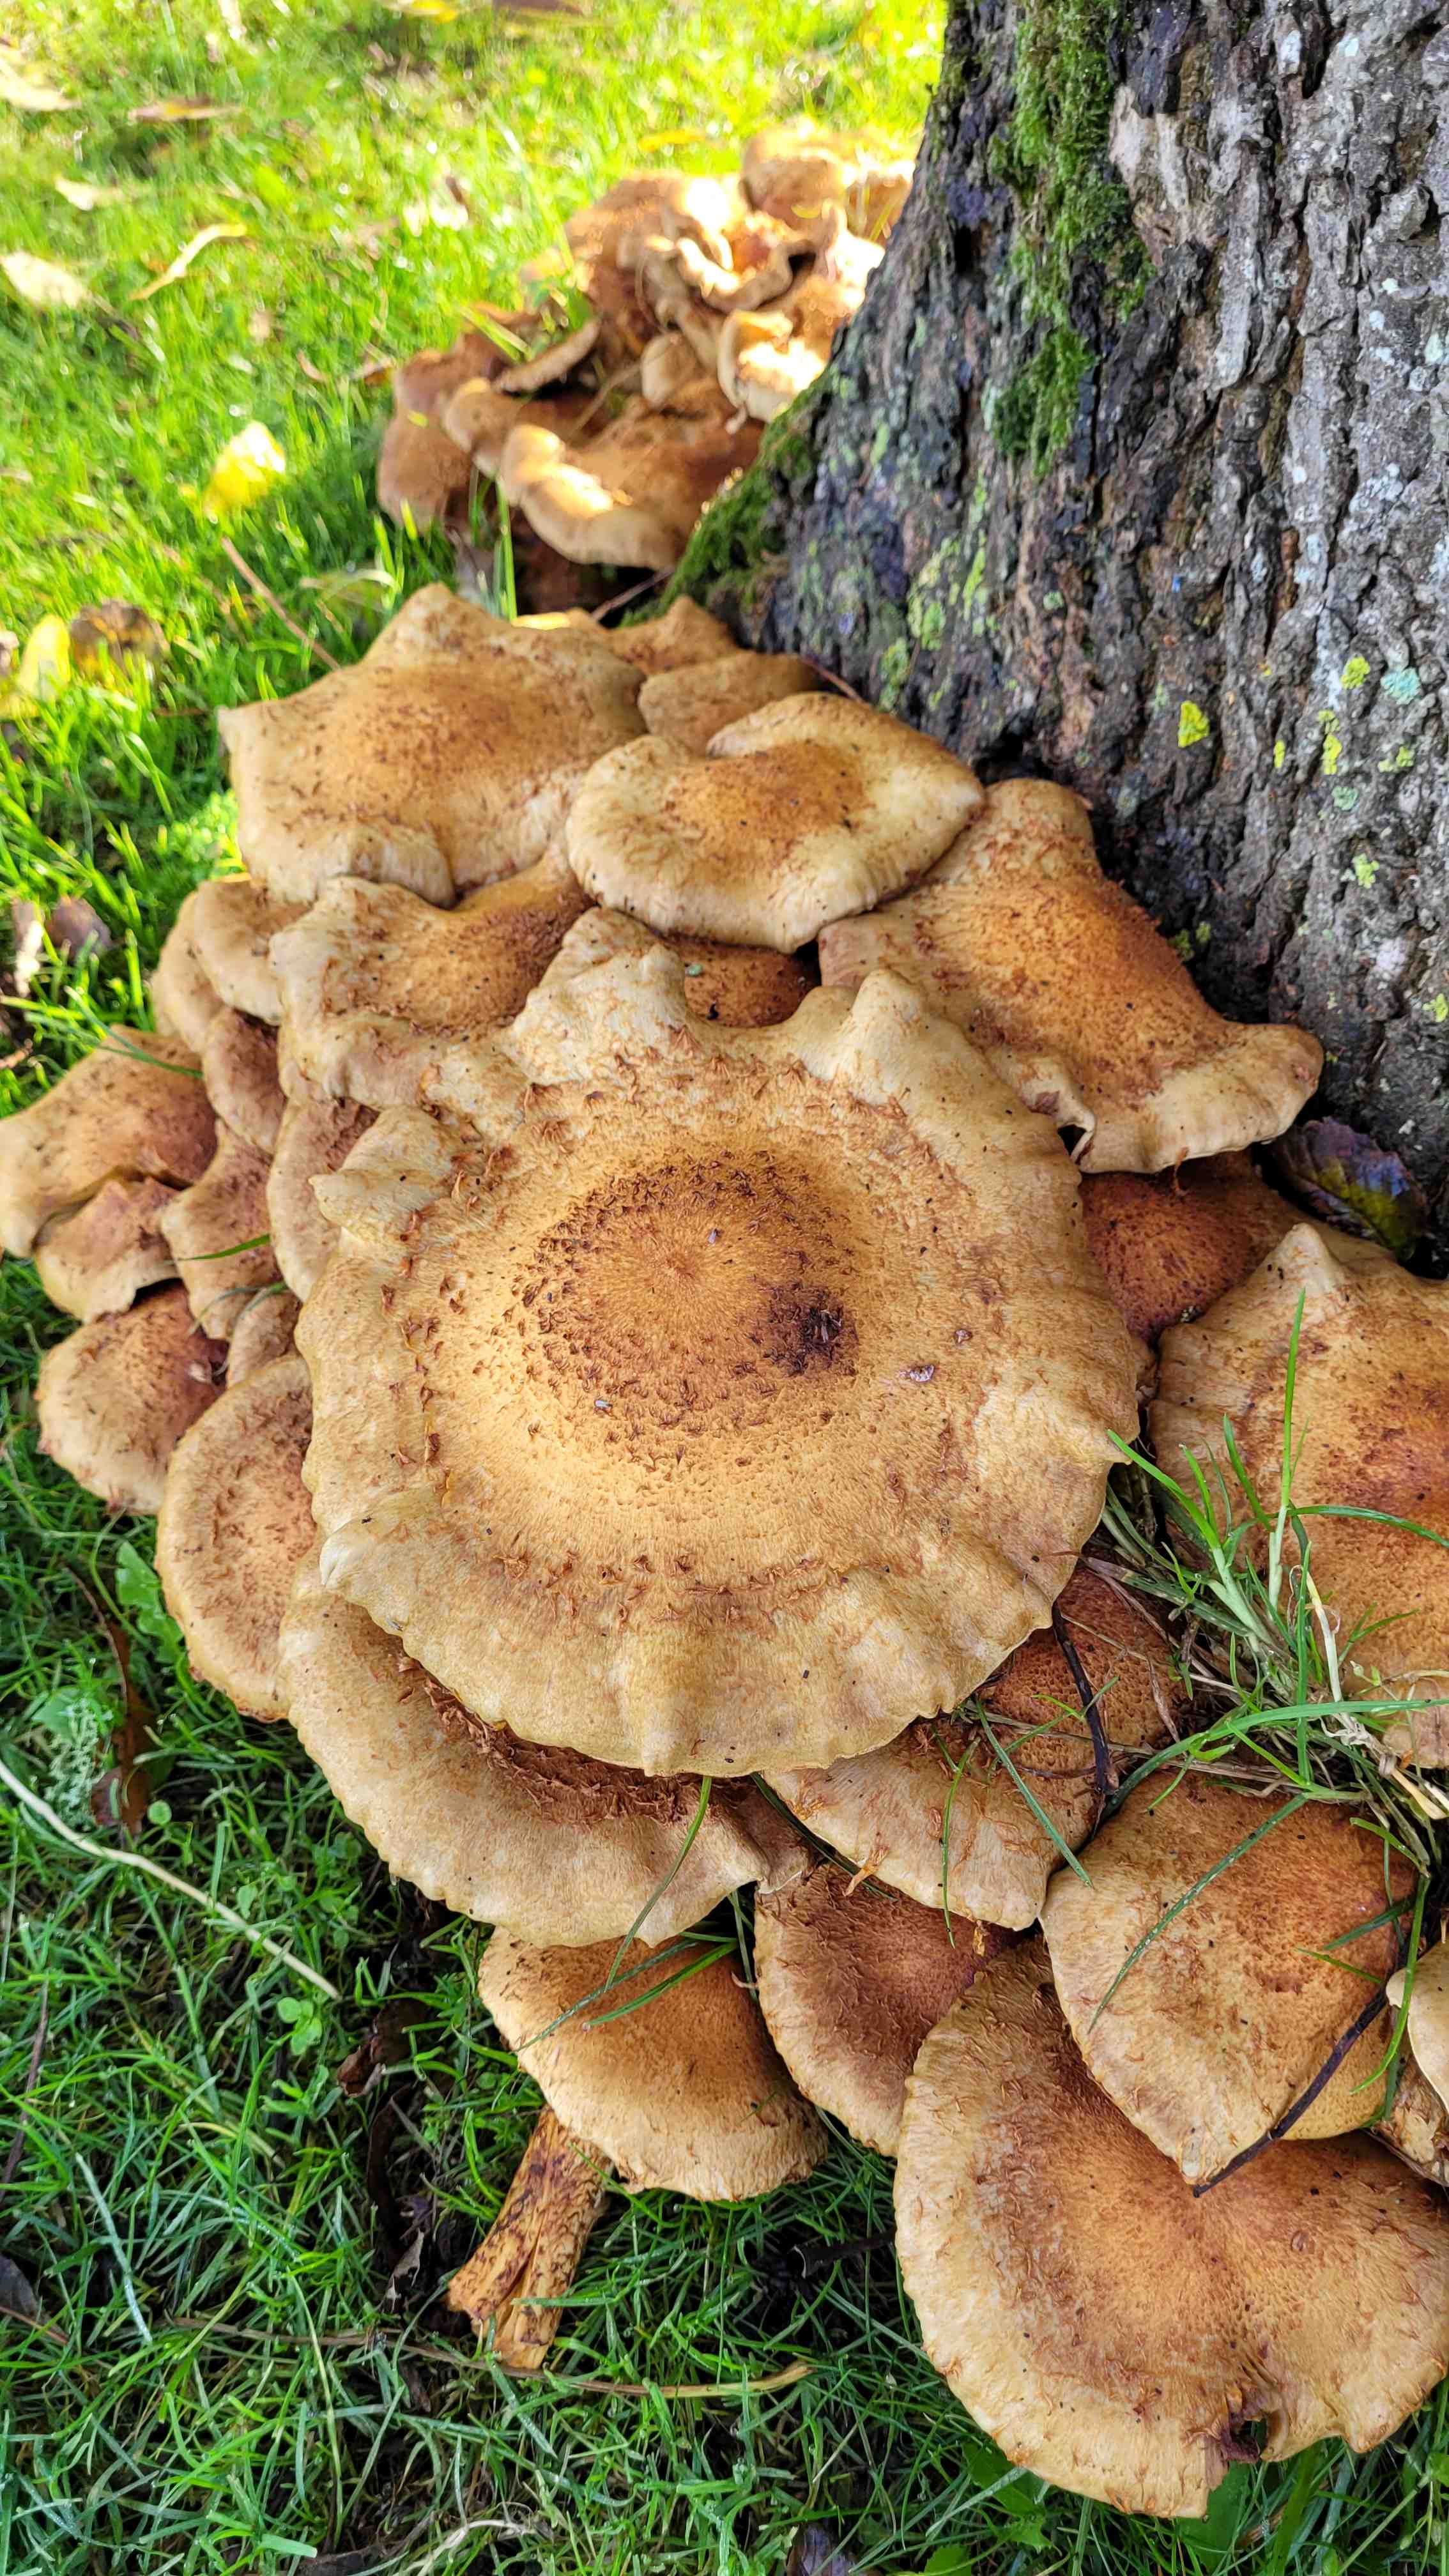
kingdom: Fungi
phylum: Basidiomycota
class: Agaricomycetes
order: Agaricales
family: Strophariaceae
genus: Pholiota
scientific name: Pholiota squarrosa
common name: krumskællet skælhat
